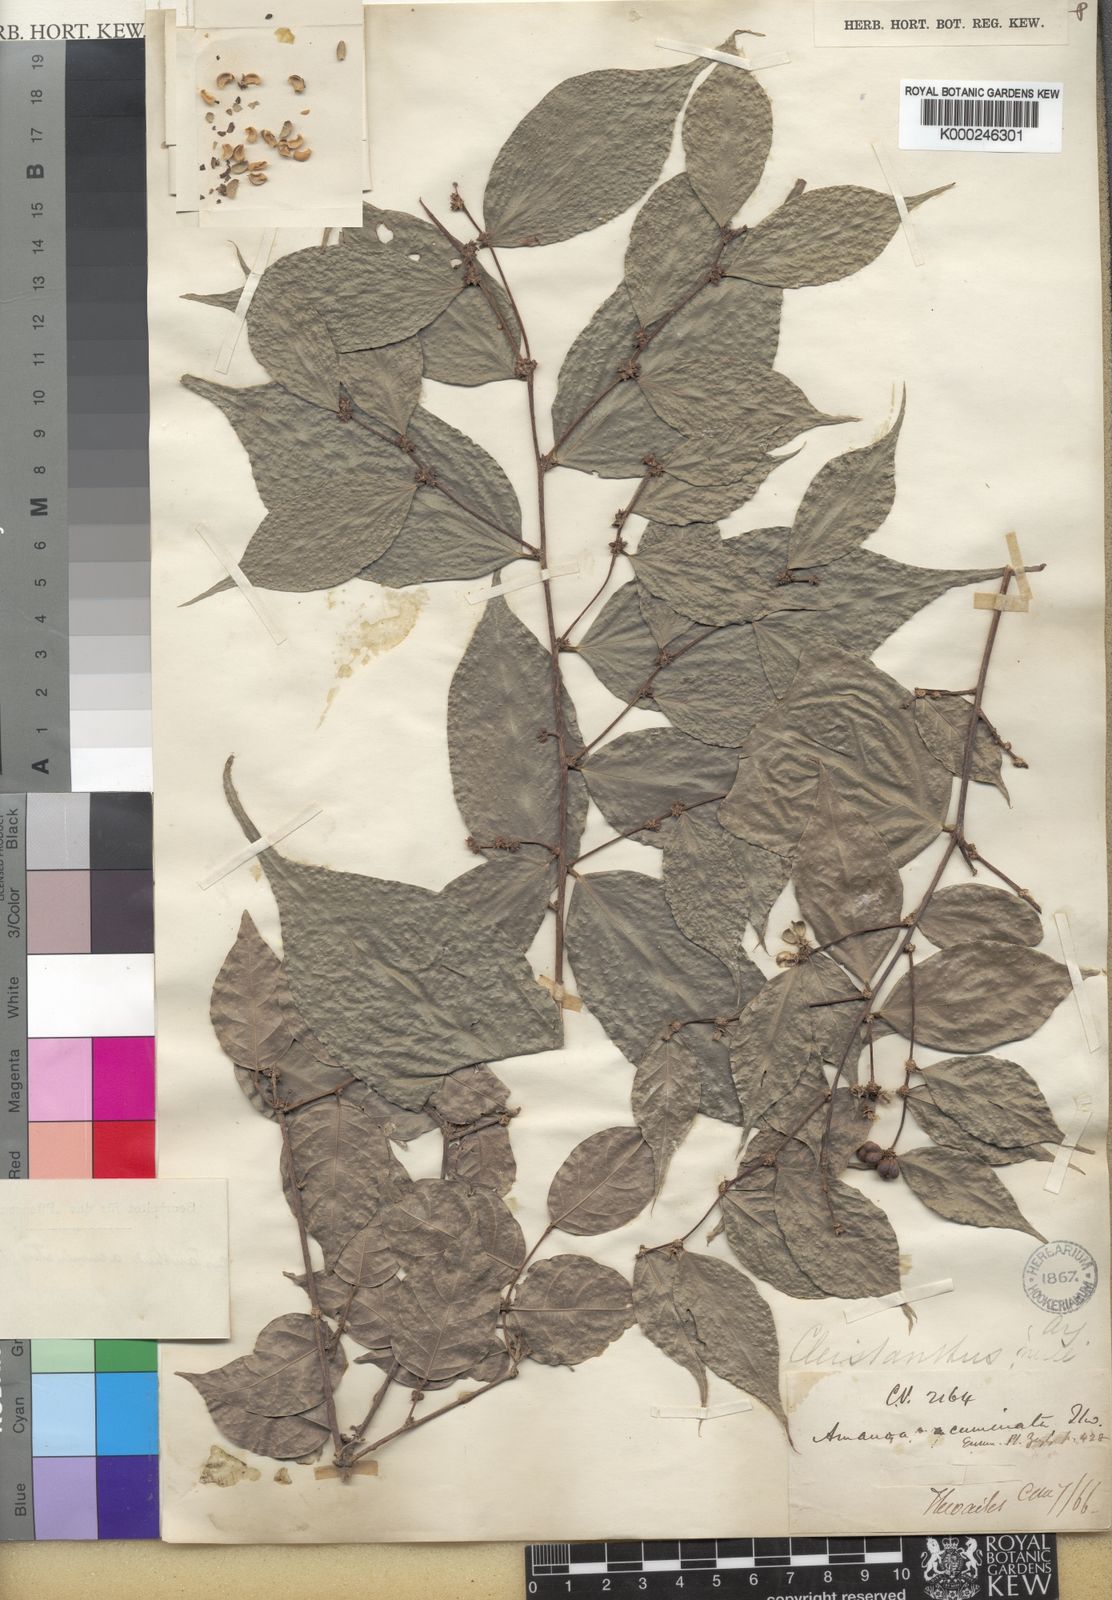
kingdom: Plantae
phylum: Tracheophyta
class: Magnoliopsida
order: Malpighiales
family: Phyllanthaceae
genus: Cleistanthus
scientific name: Cleistanthus
